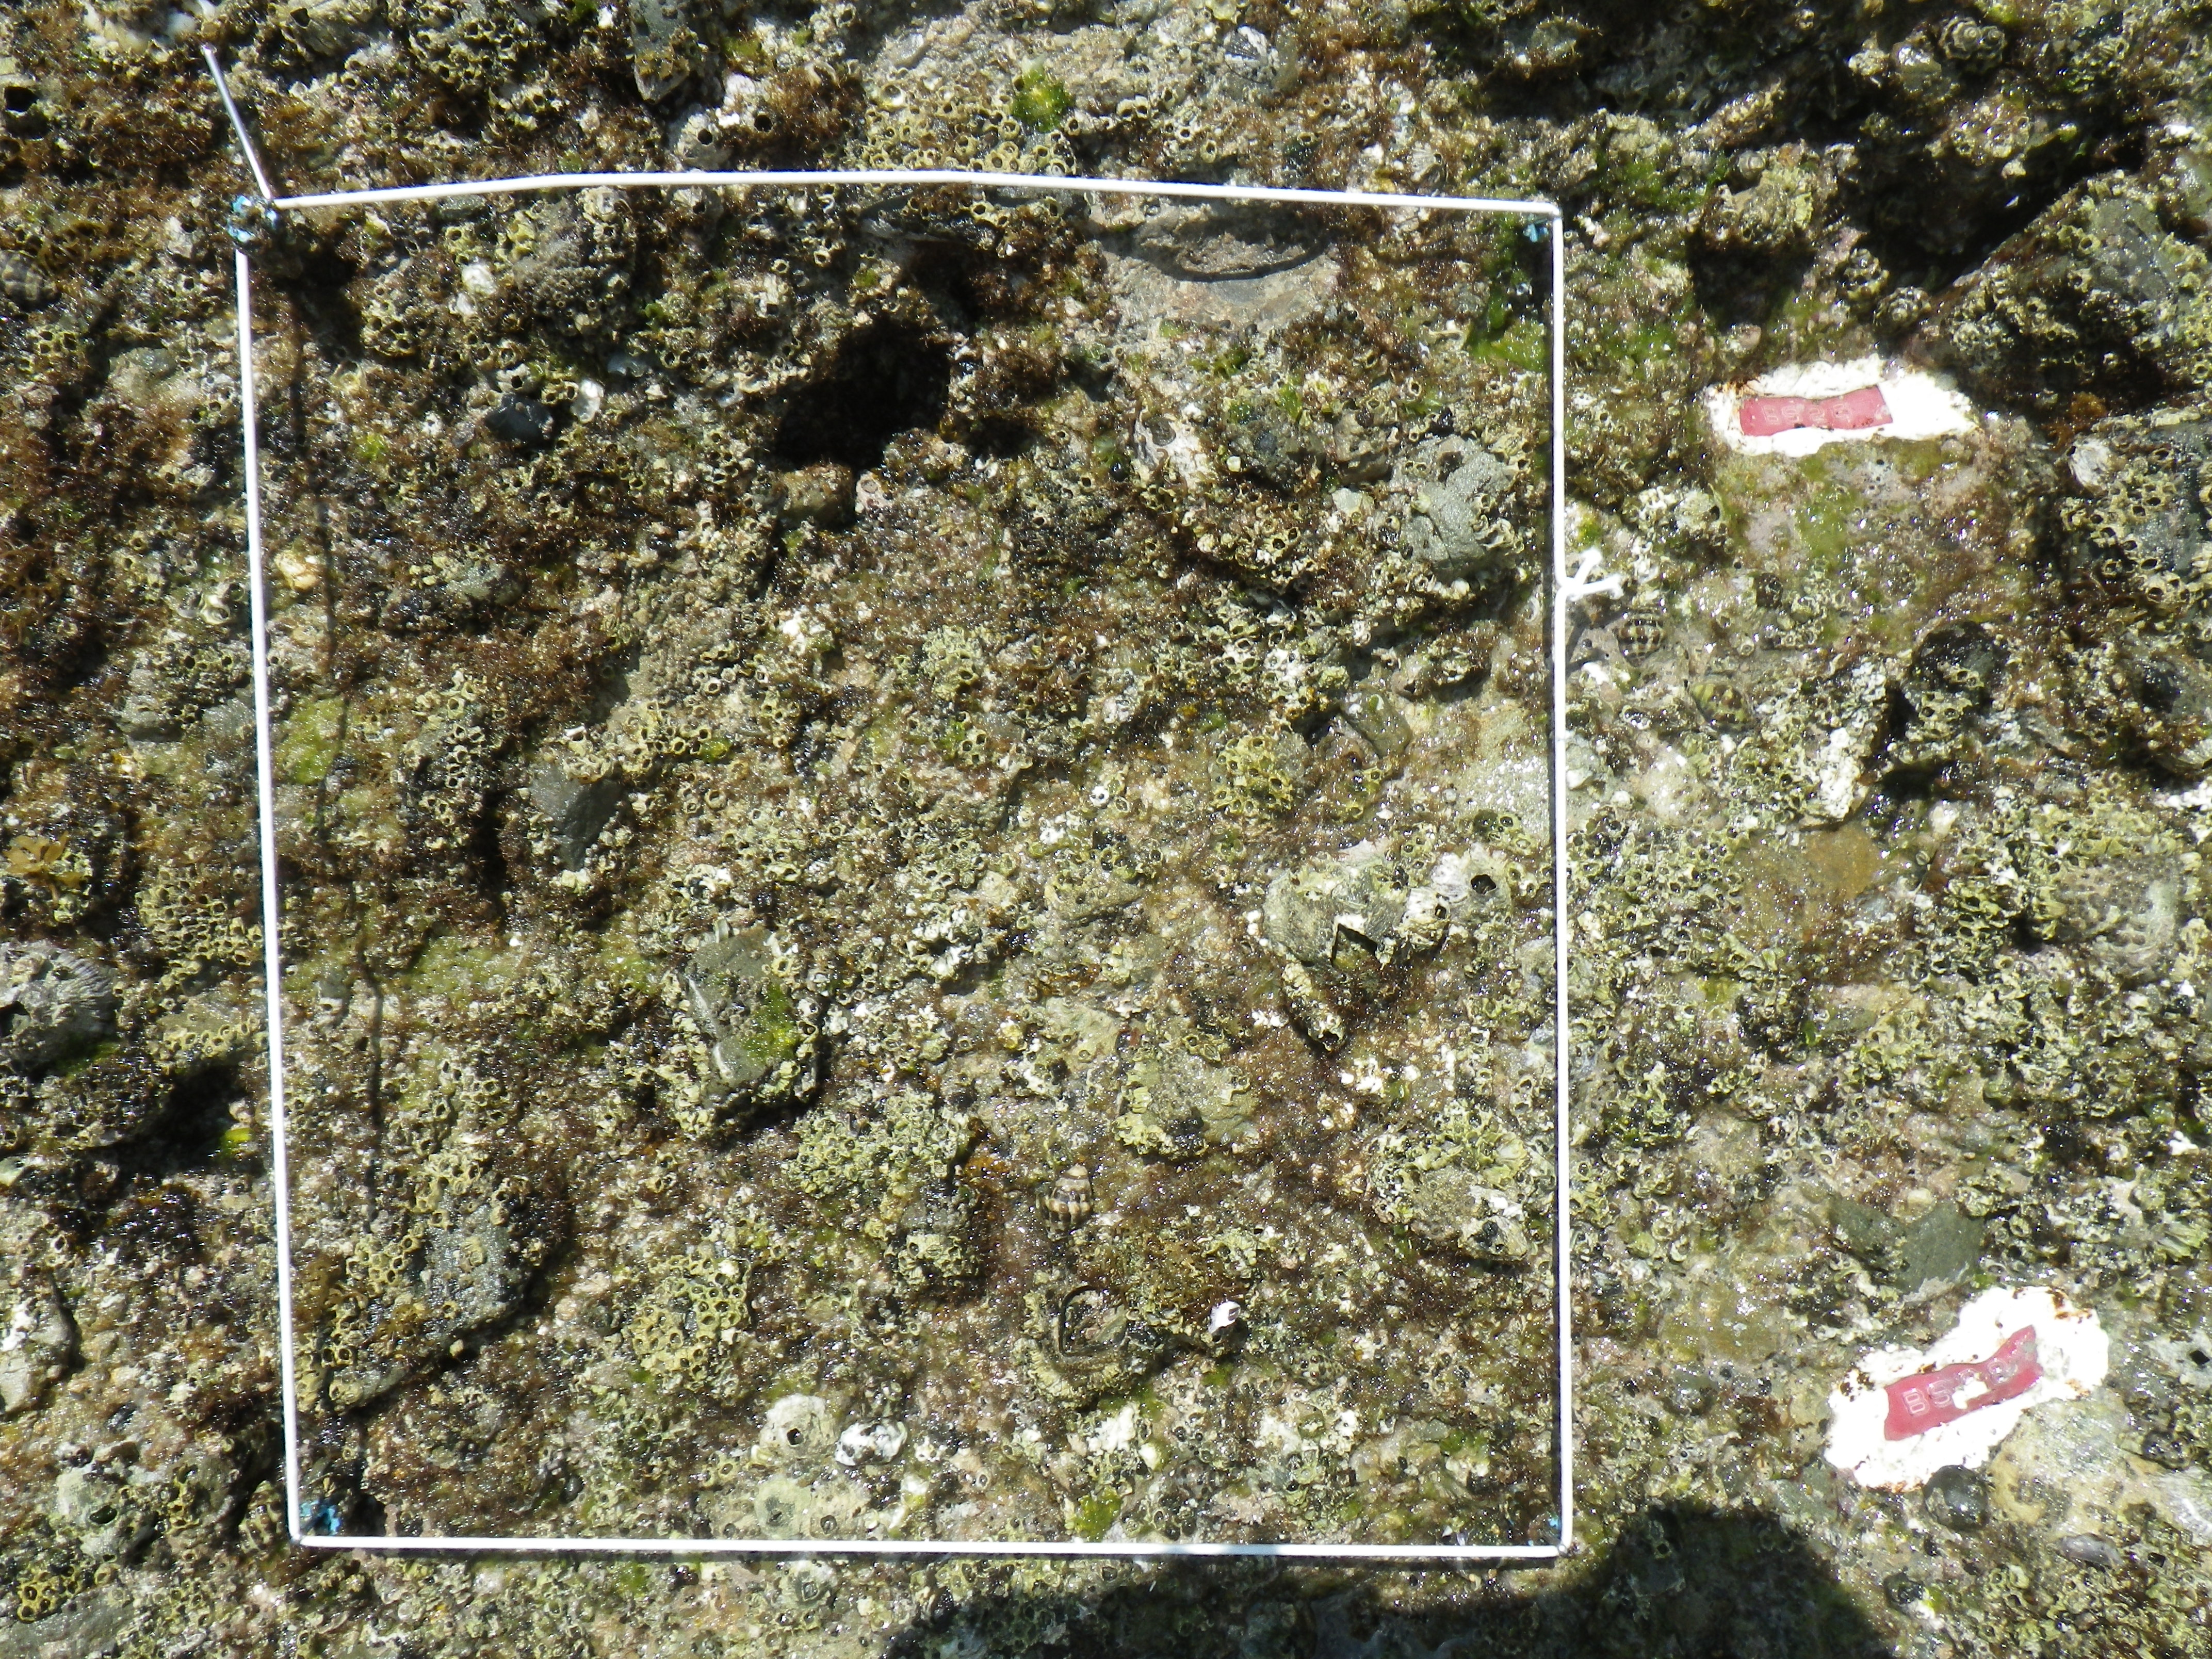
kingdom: Animalia
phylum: Arthropoda
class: Maxillopoda
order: Sessilia
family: Chthamalidae
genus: Chthamalus
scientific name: Chthamalus challengeri
